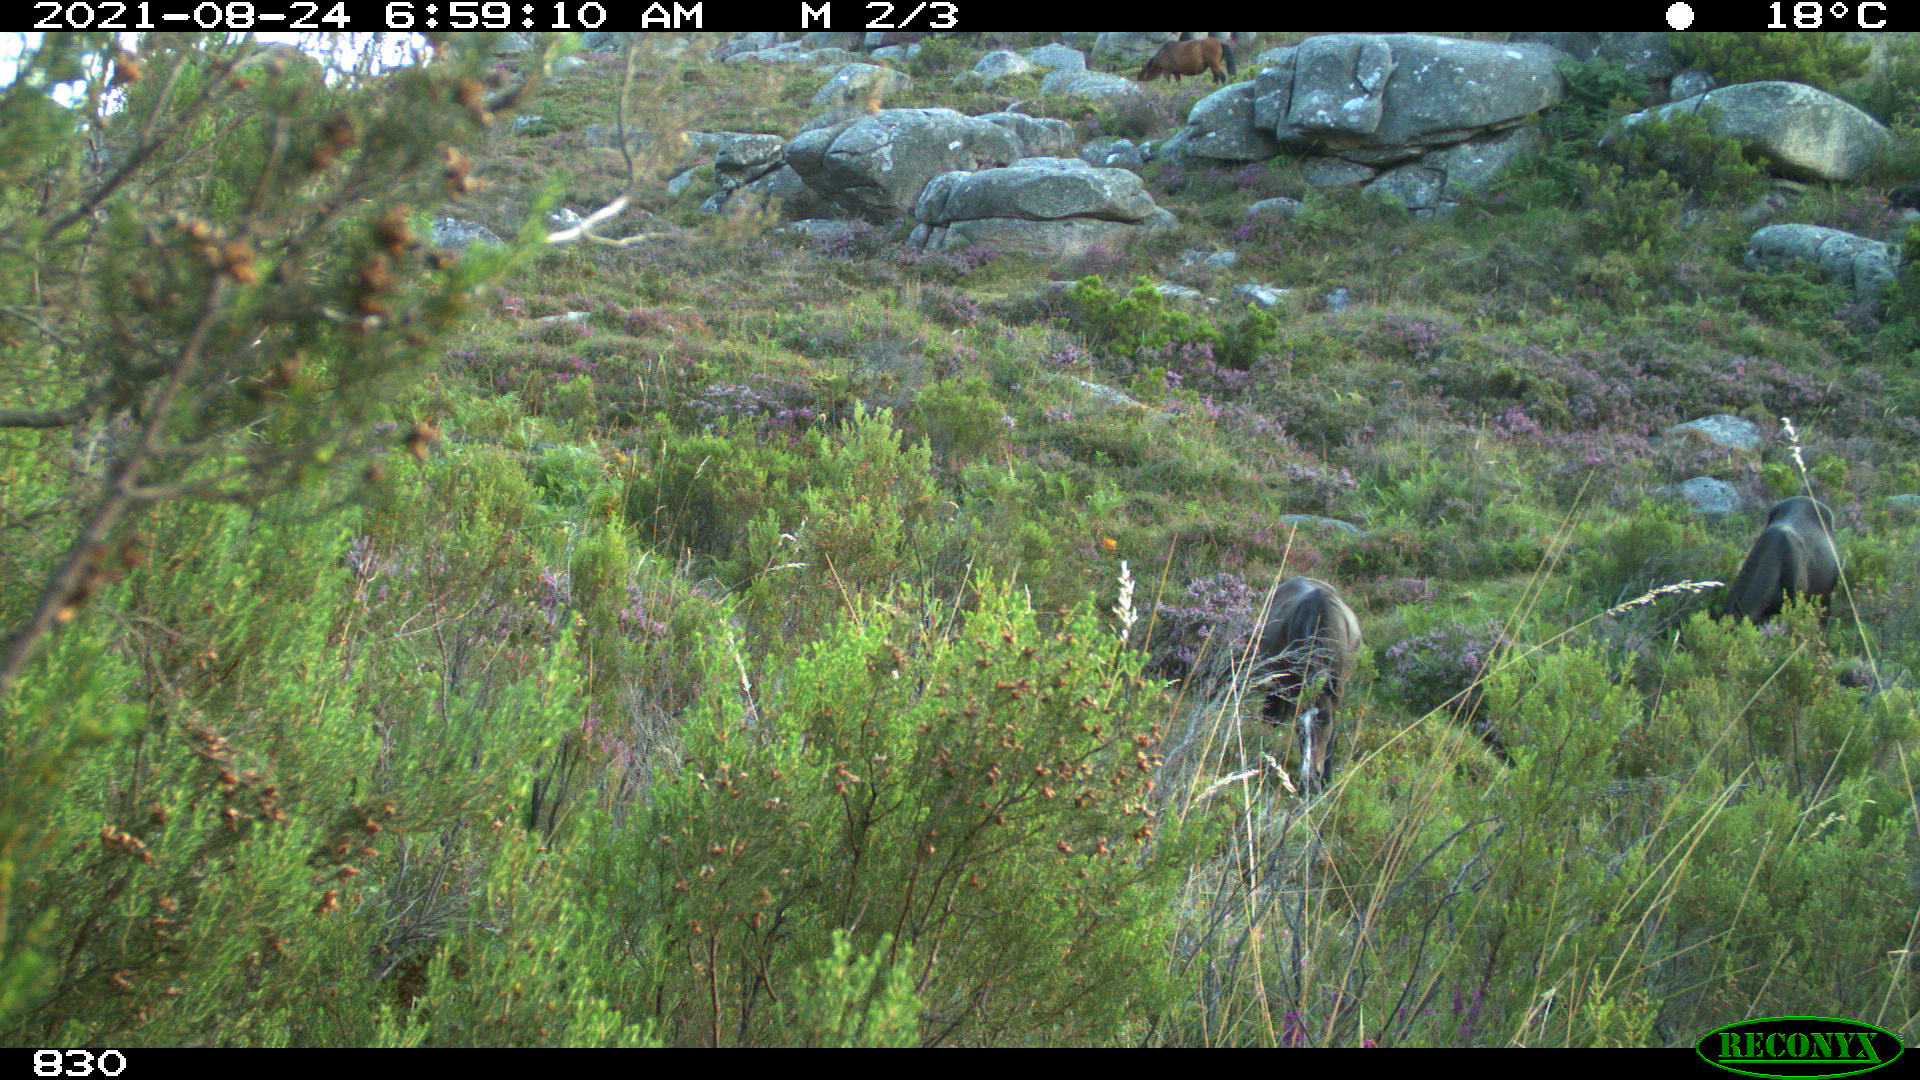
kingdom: Animalia
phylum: Chordata
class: Mammalia
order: Perissodactyla
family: Equidae
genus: Equus
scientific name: Equus caballus
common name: Horse
